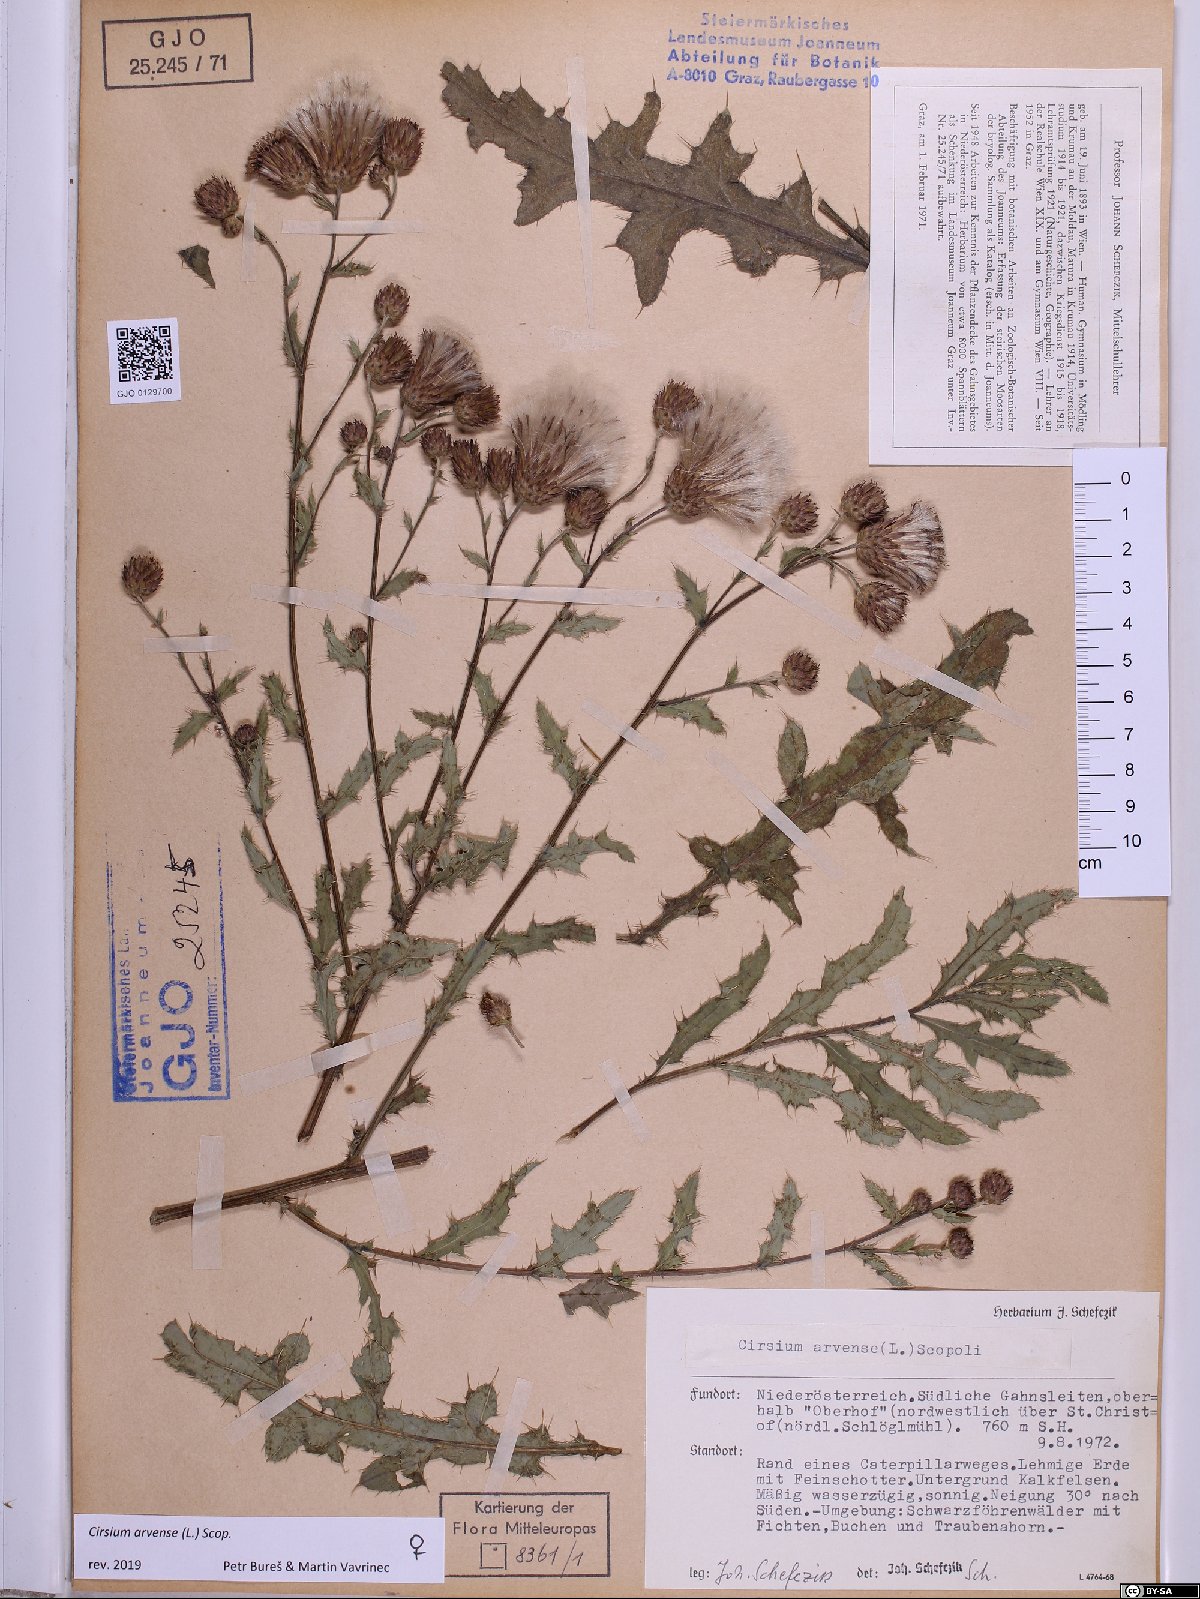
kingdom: Plantae
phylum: Tracheophyta
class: Magnoliopsida
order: Asterales
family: Asteraceae
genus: Cirsium
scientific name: Cirsium arvense
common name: Creeping thistle
